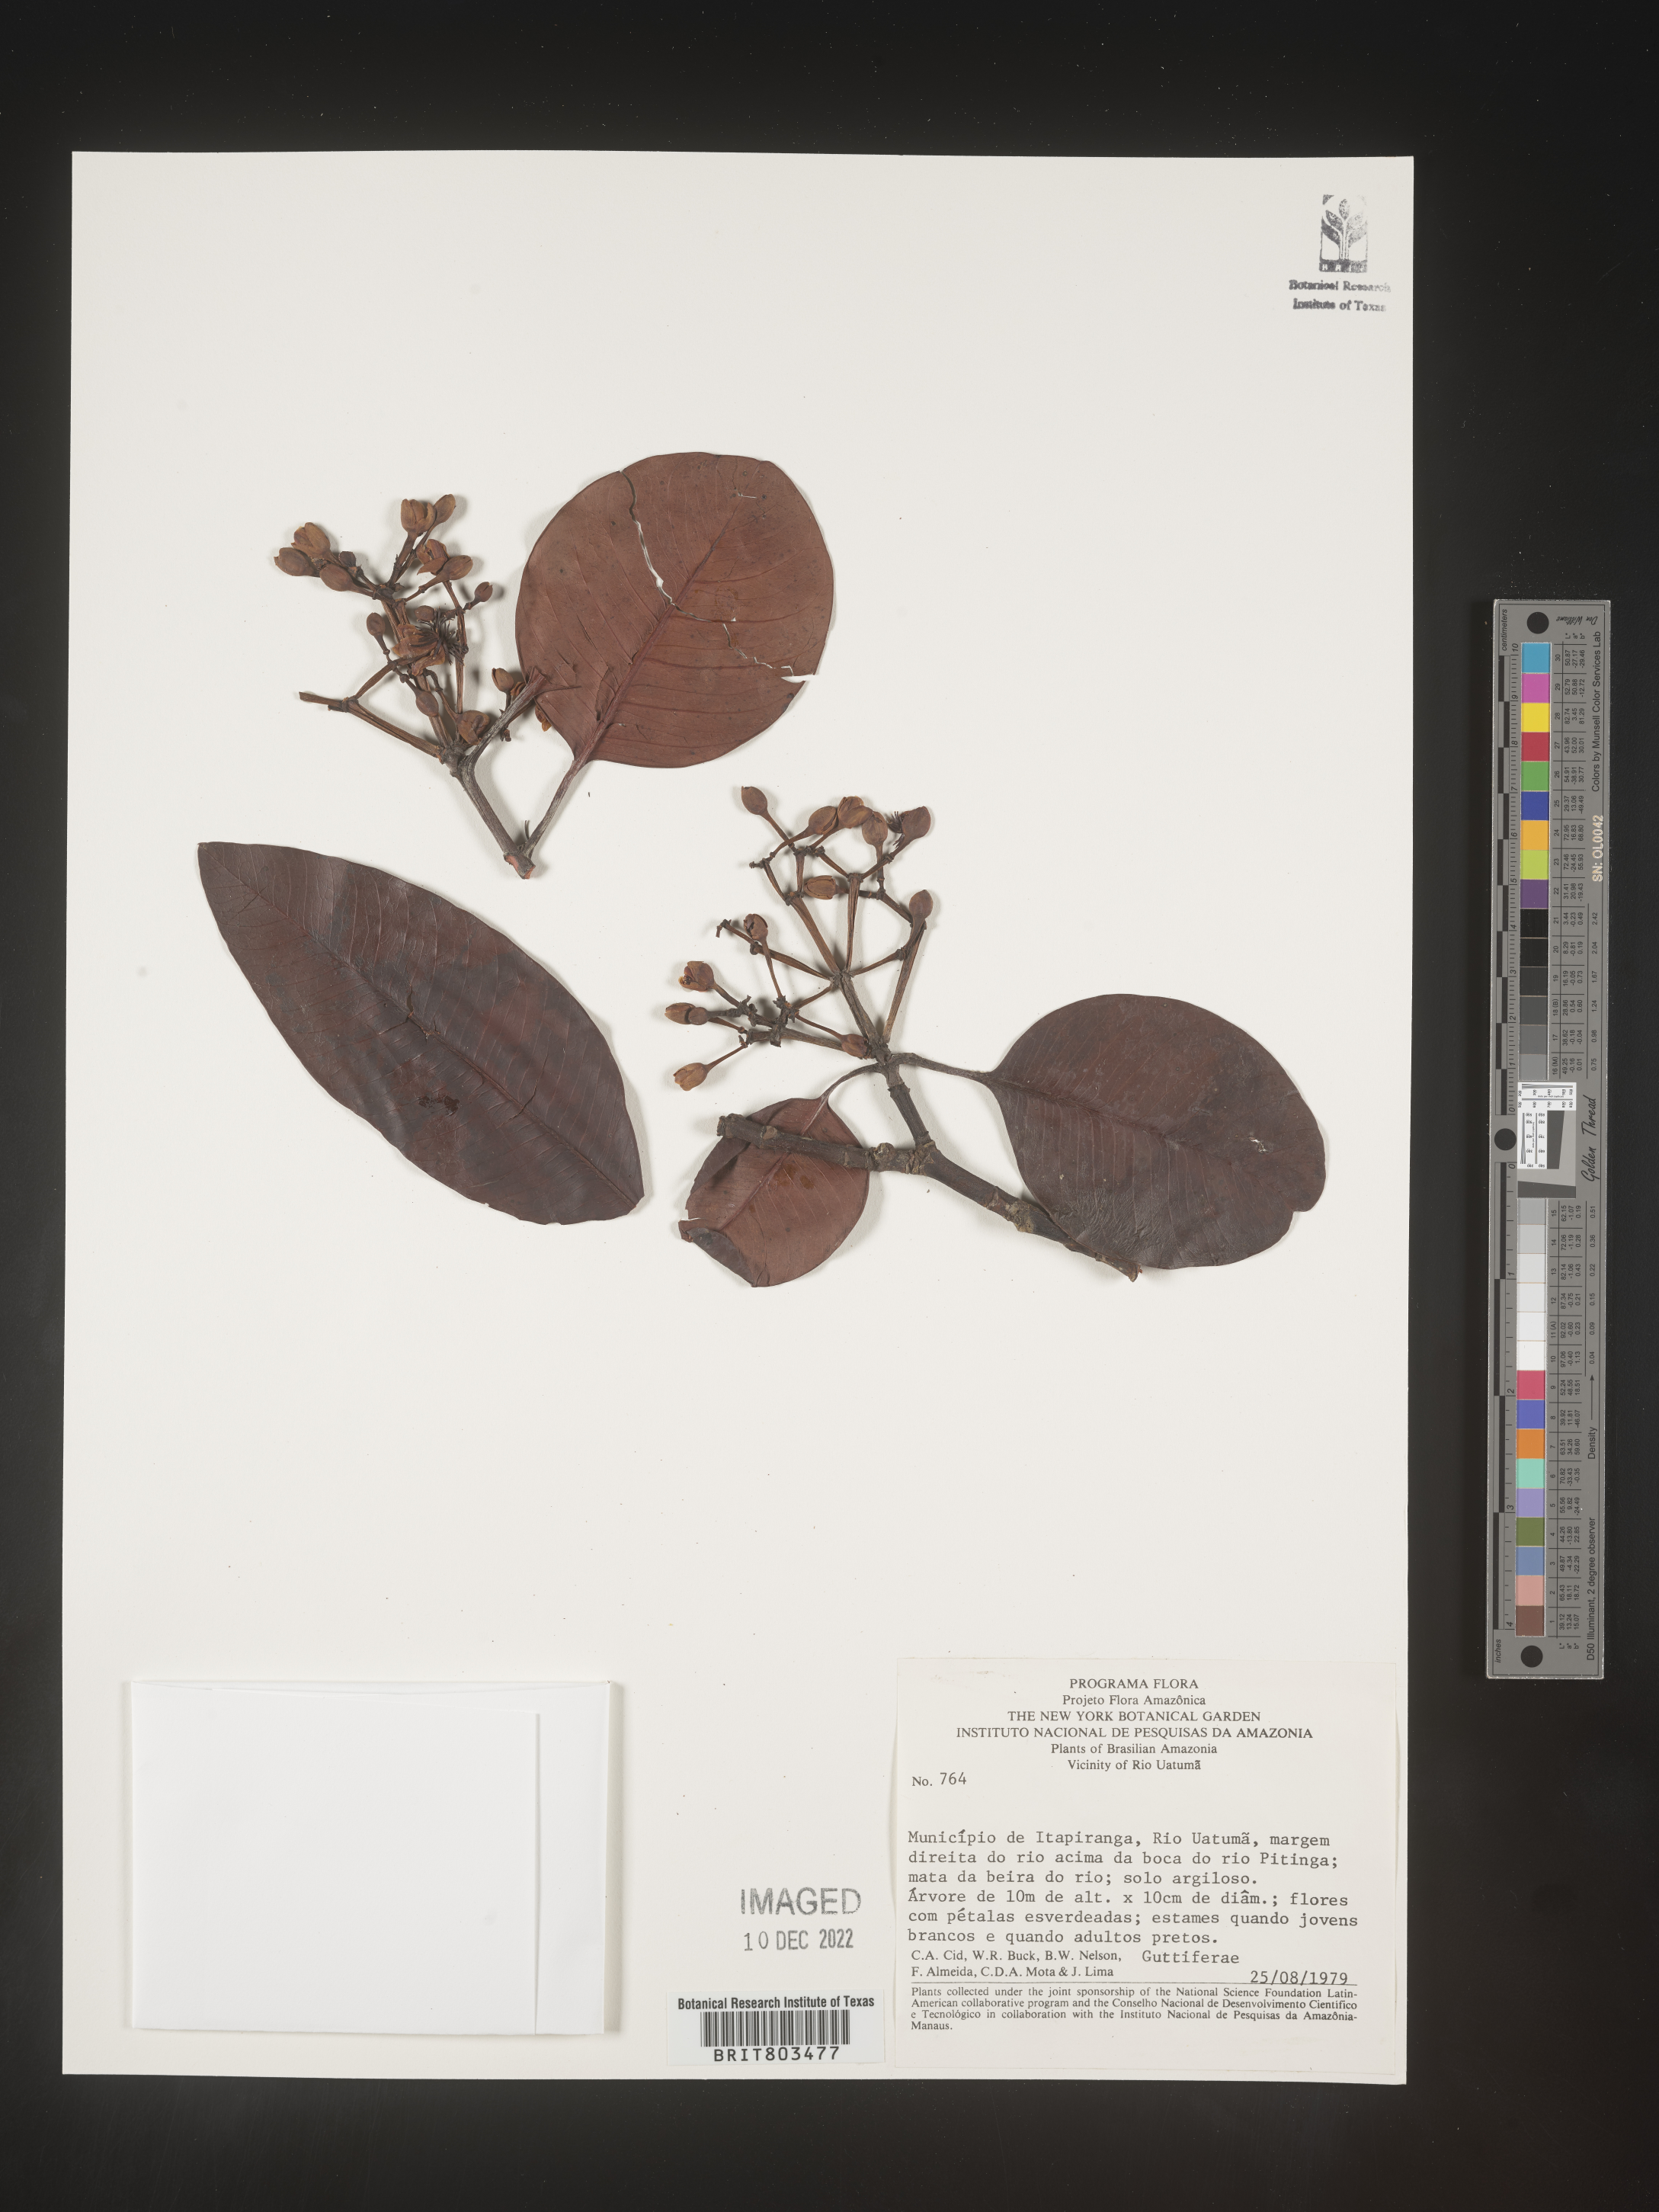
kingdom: Plantae
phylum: Tracheophyta
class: Magnoliopsida
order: Malpighiales
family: Clusiaceae
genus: Tovomita
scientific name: Tovomita
